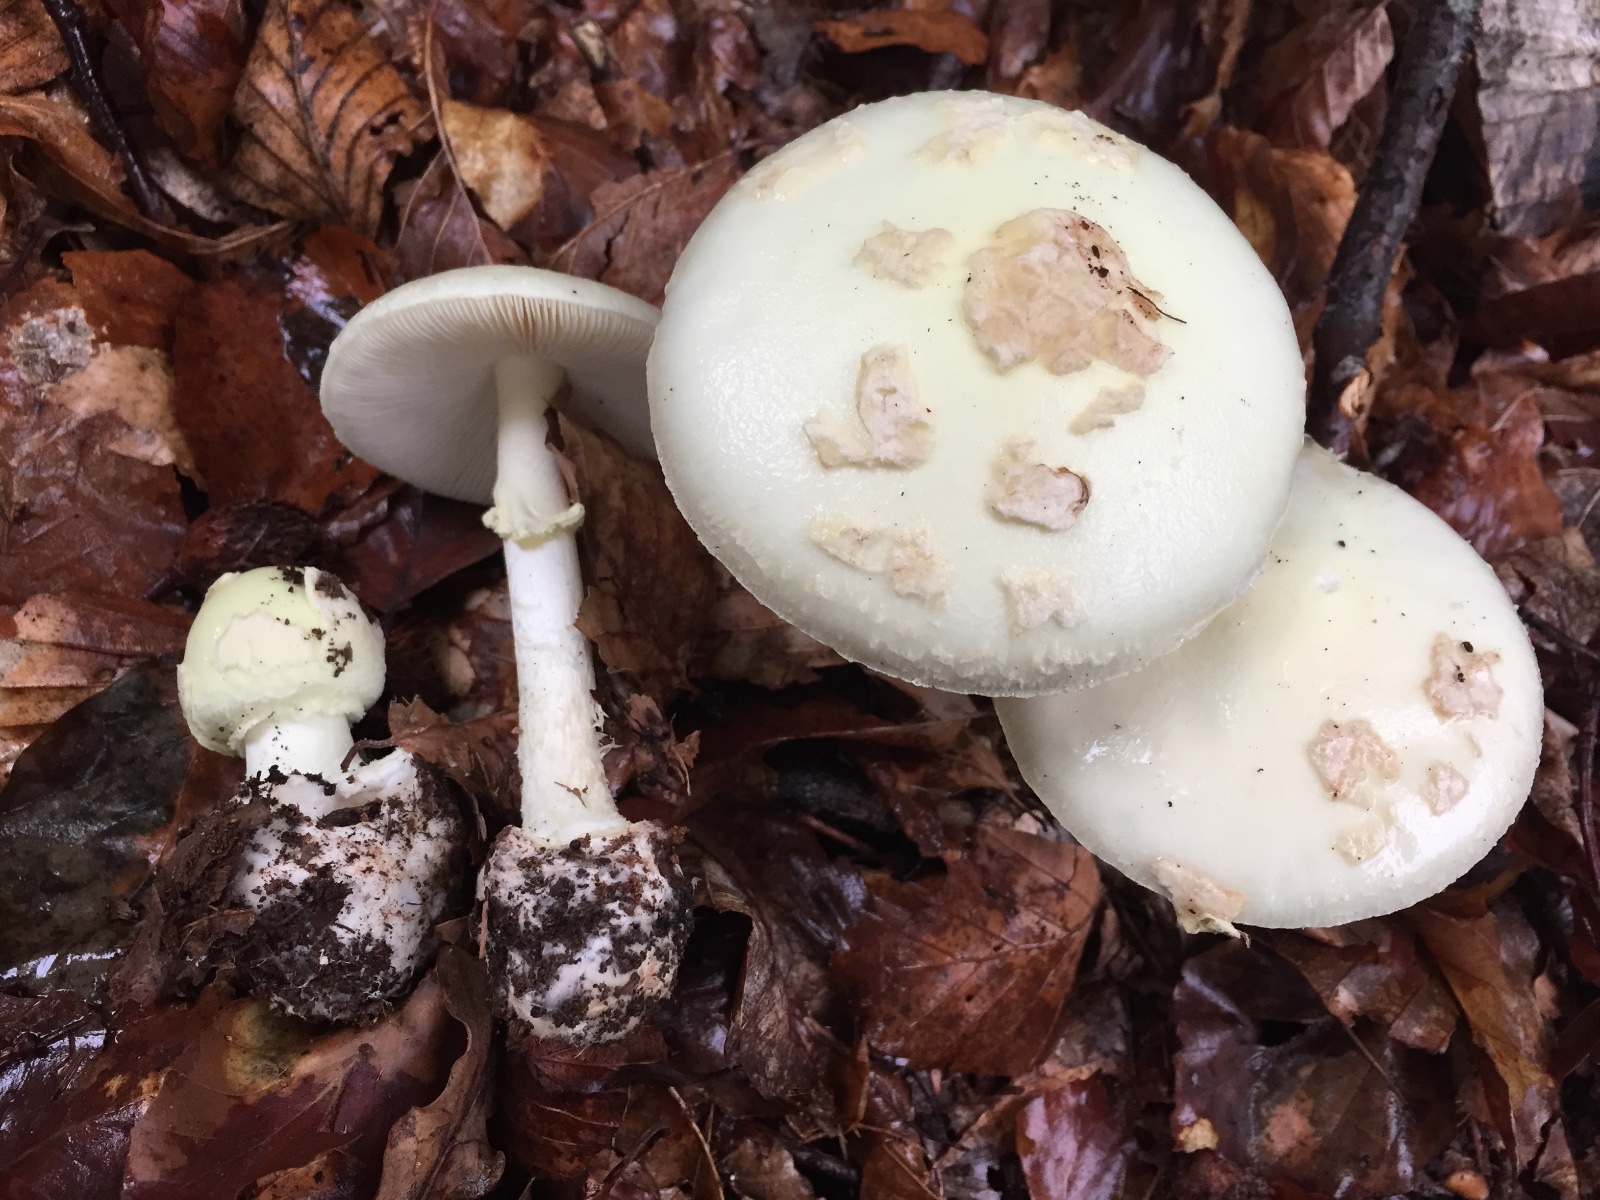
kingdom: Fungi
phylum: Basidiomycota
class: Agaricomycetes
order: Agaricales
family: Amanitaceae
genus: Amanita
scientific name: Amanita citrina
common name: kugleknoldet fluesvamp
